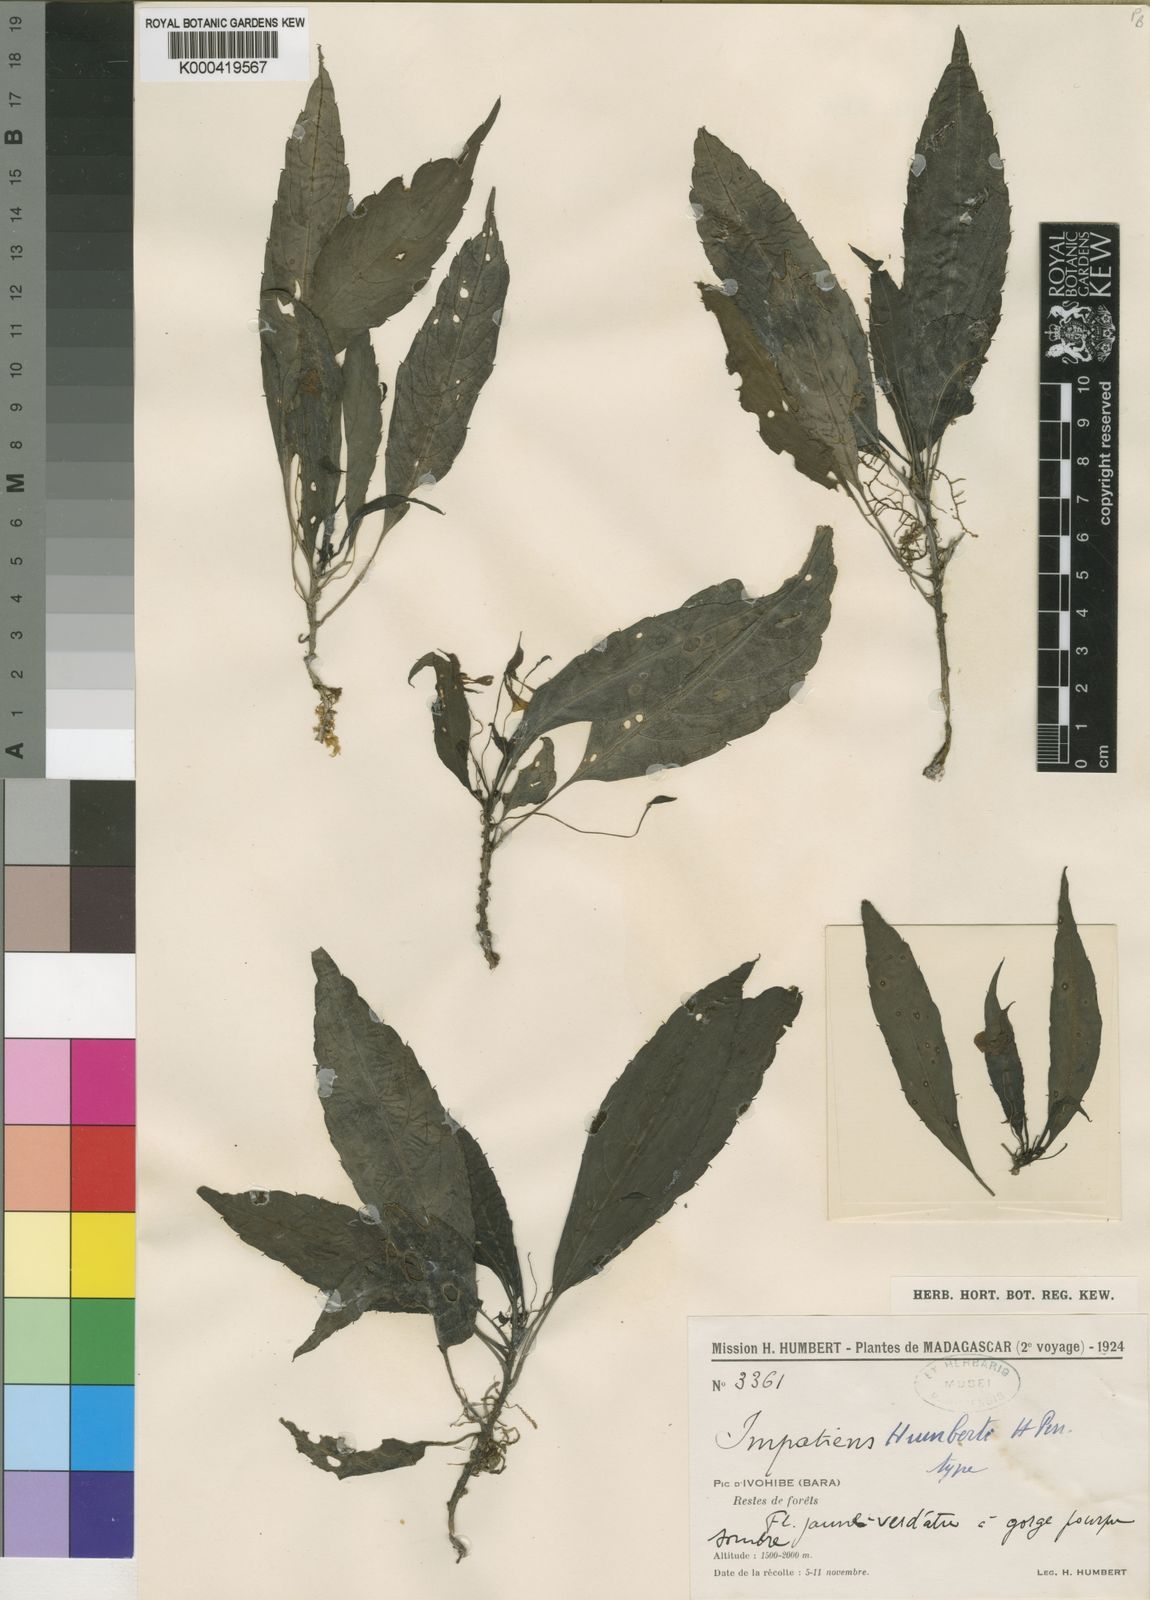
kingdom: Plantae
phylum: Tracheophyta
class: Magnoliopsida
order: Ericales
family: Balsaminaceae
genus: Impatiens
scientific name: Impatiens humbertii
